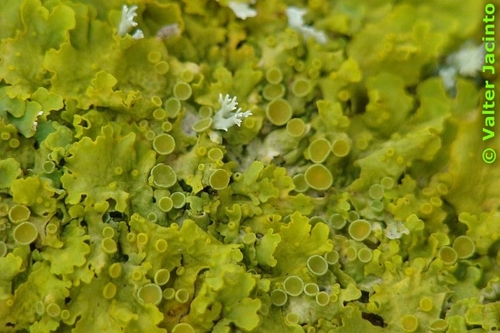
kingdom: Fungi
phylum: Ascomycota
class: Lecanoromycetes
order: Teloschistales
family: Teloschistaceae
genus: Xanthoria
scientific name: Xanthoria parietina
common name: Common orange lichen
